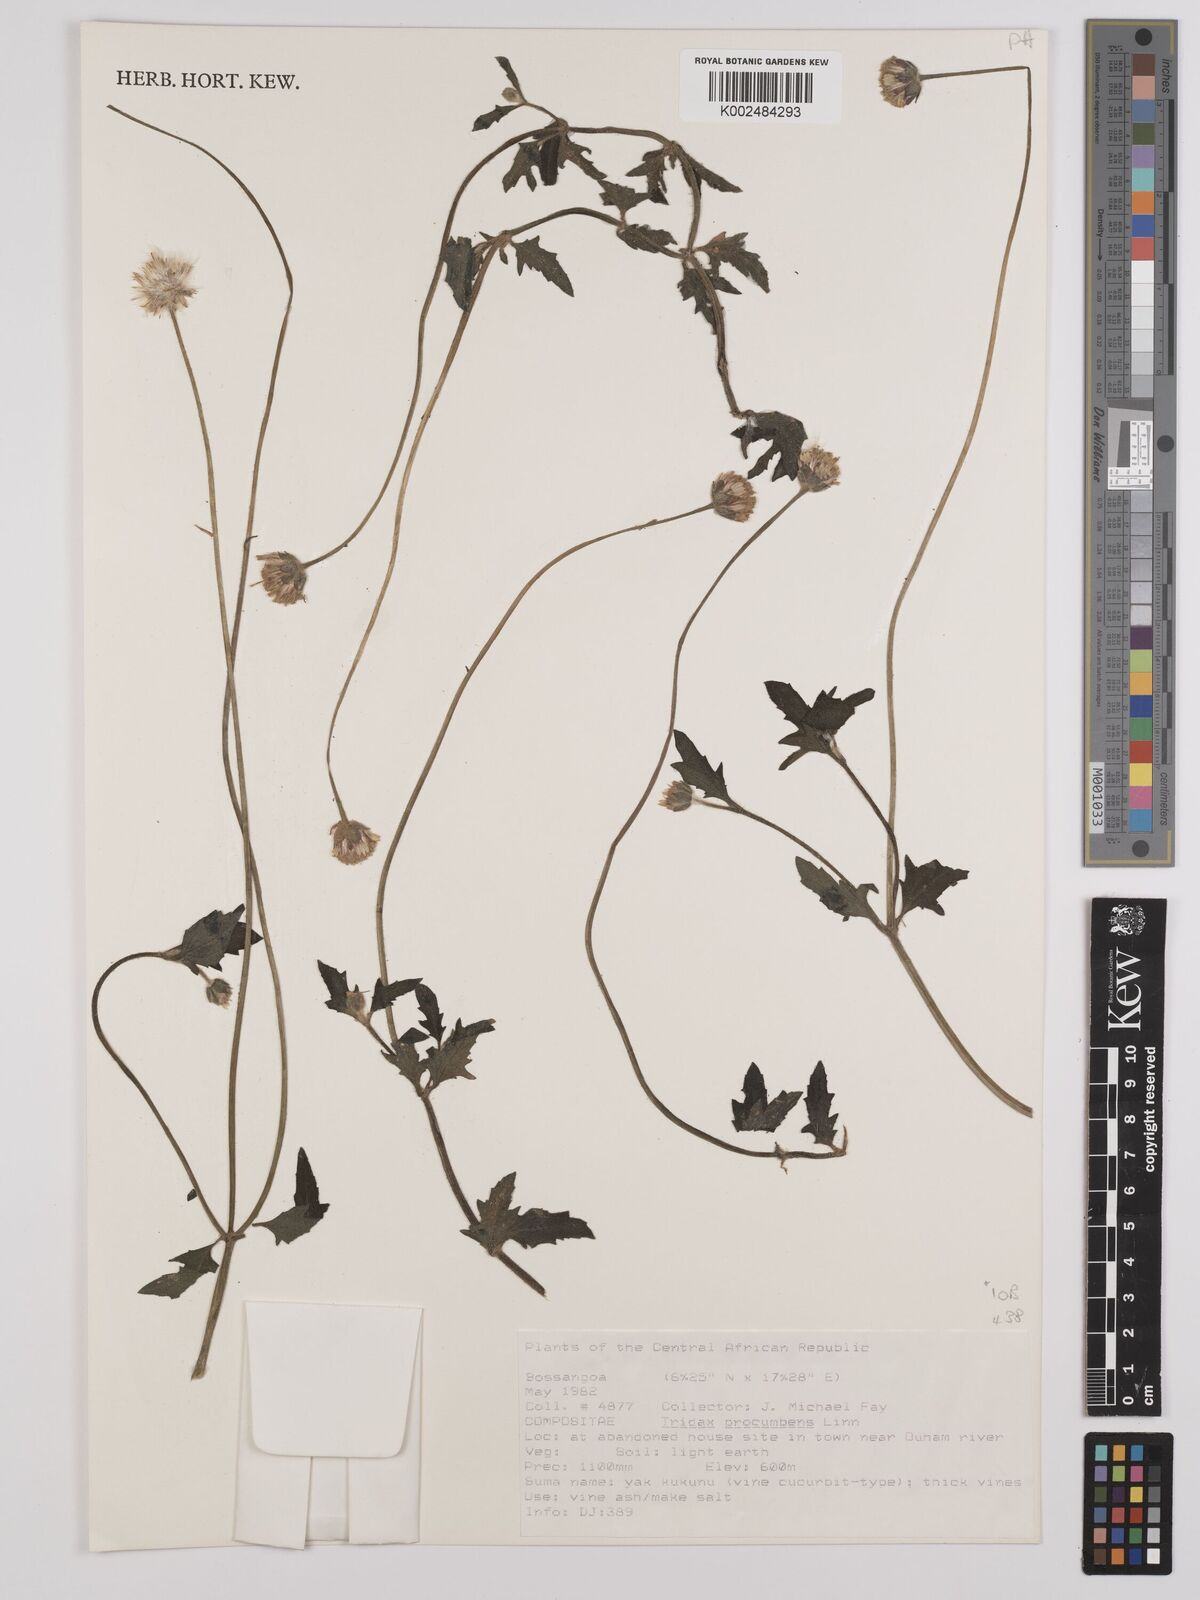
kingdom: Plantae
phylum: Tracheophyta
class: Magnoliopsida
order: Asterales
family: Asteraceae
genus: Tridax
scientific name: Tridax procumbens
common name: Coatbuttons
